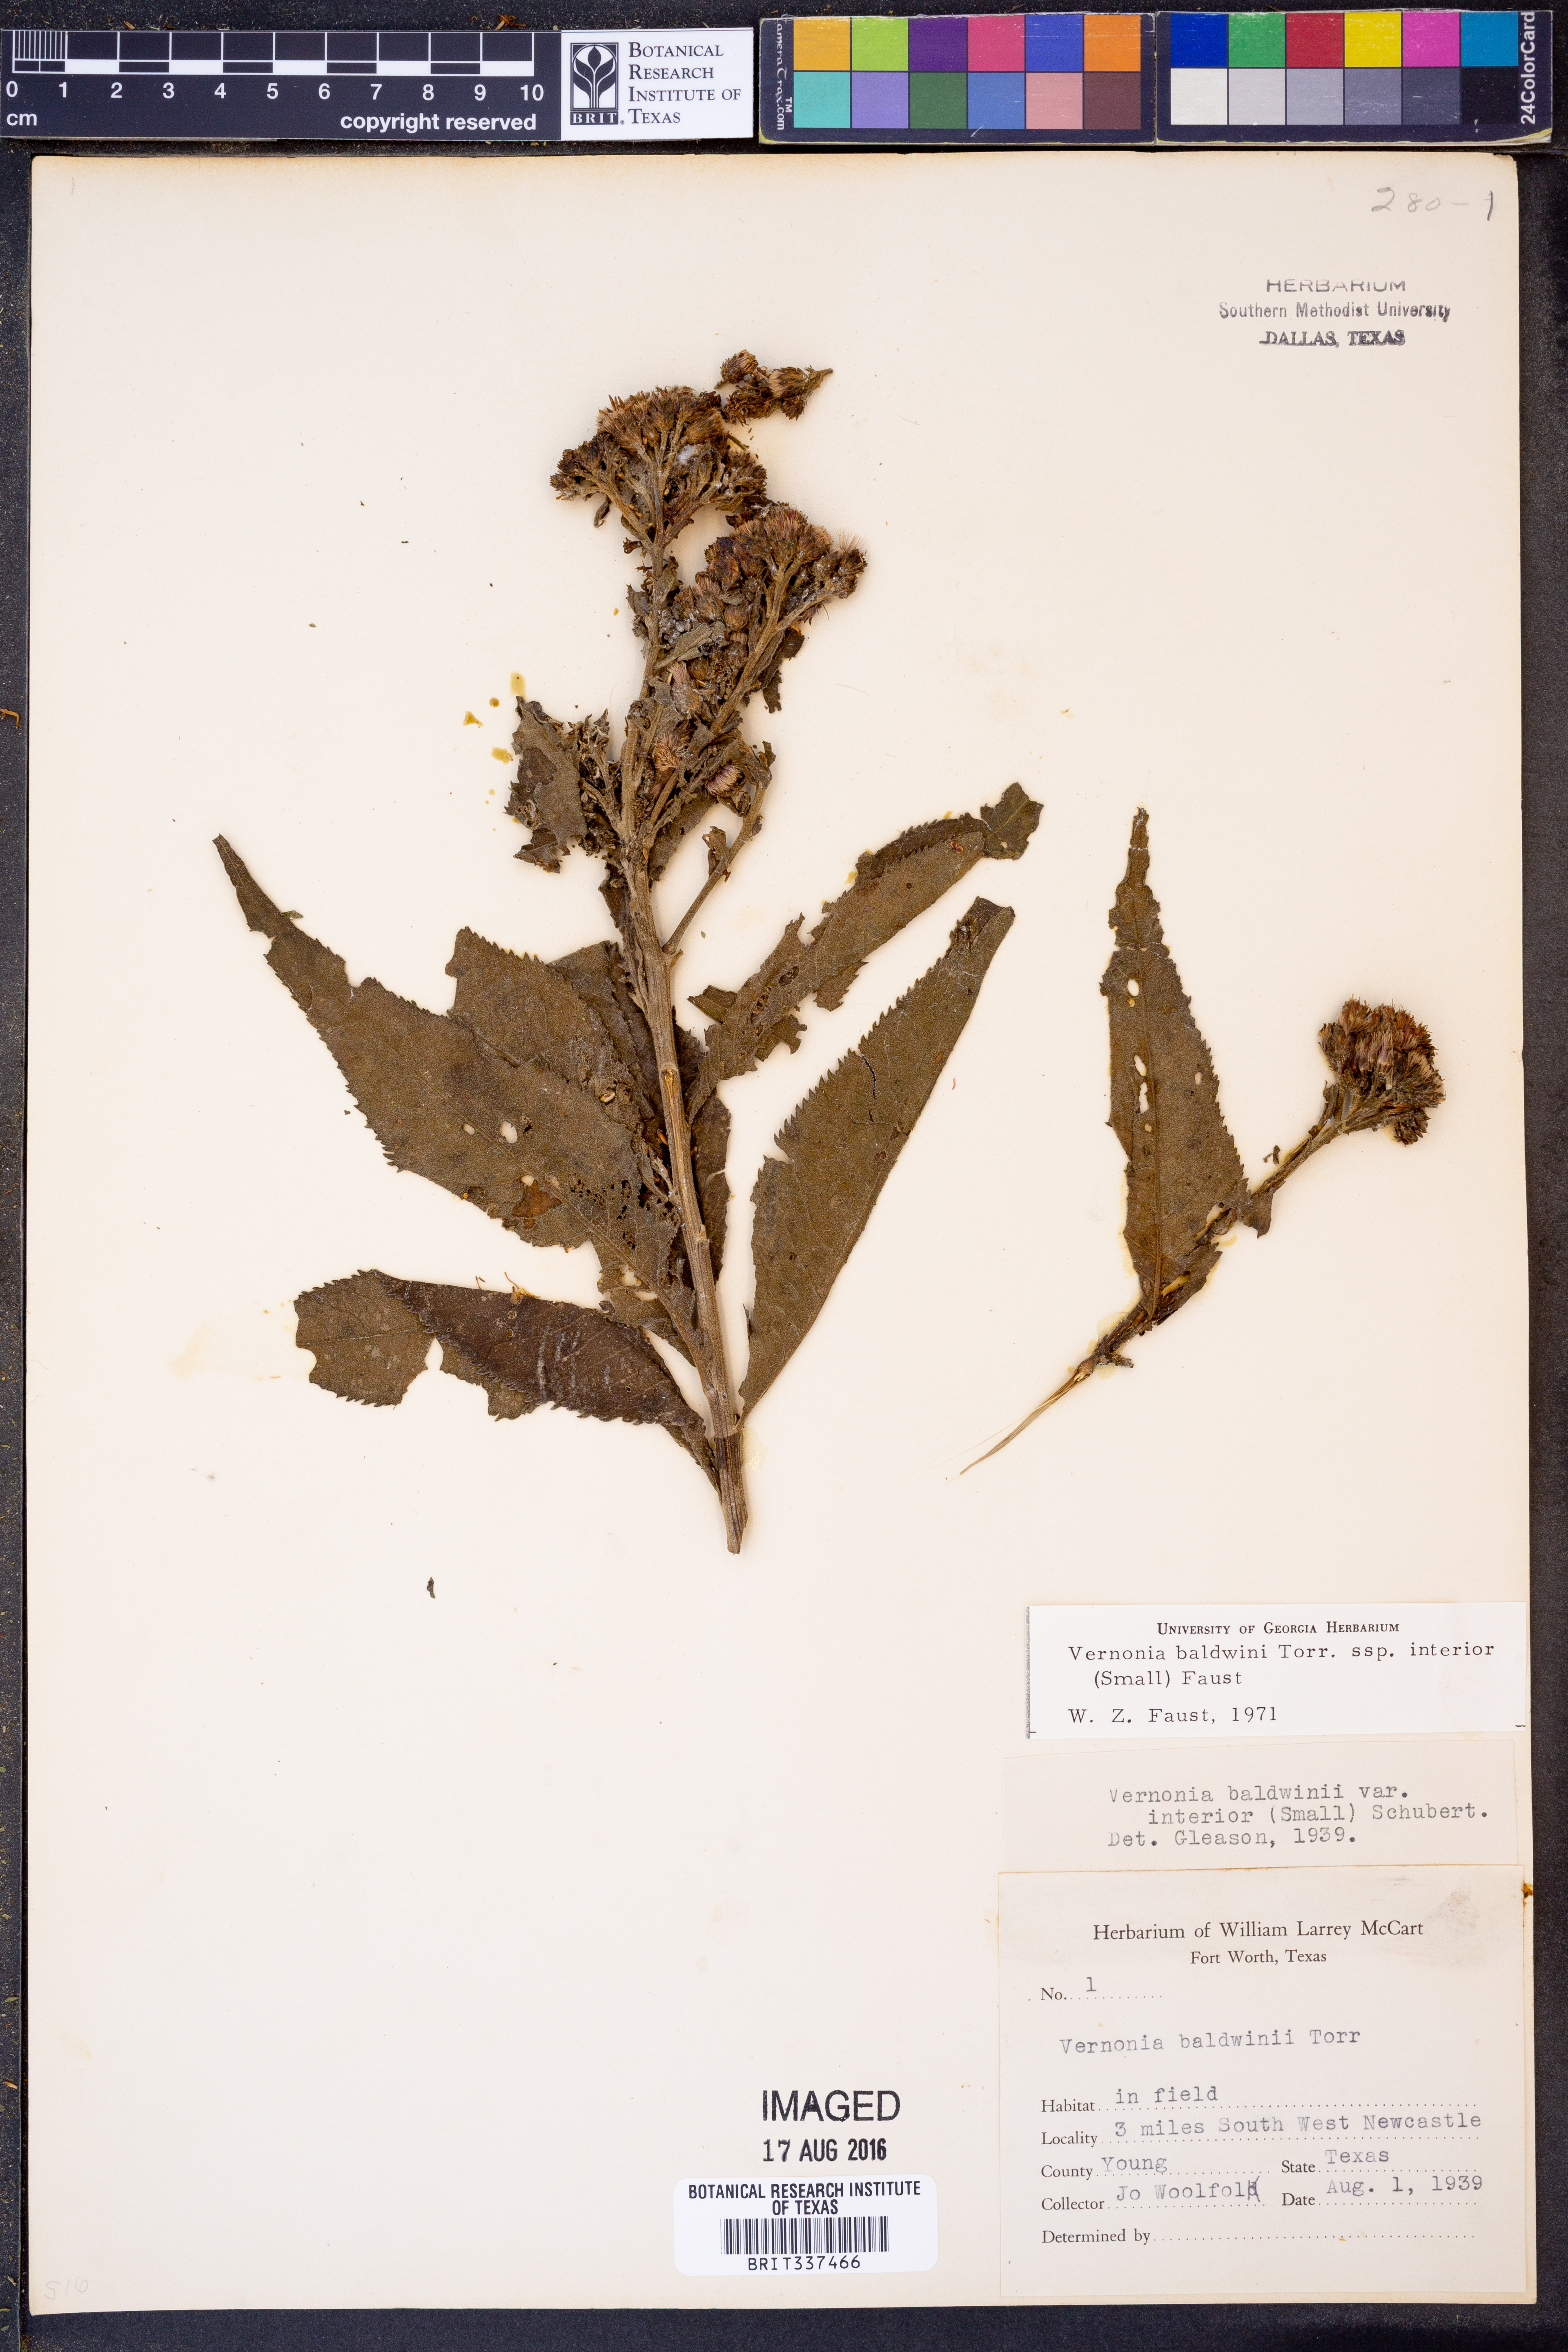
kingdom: Plantae
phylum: Tracheophyta
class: Magnoliopsida
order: Asterales
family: Asteraceae
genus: Vernonia
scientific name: Vernonia baldwinii
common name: Western ironweed
